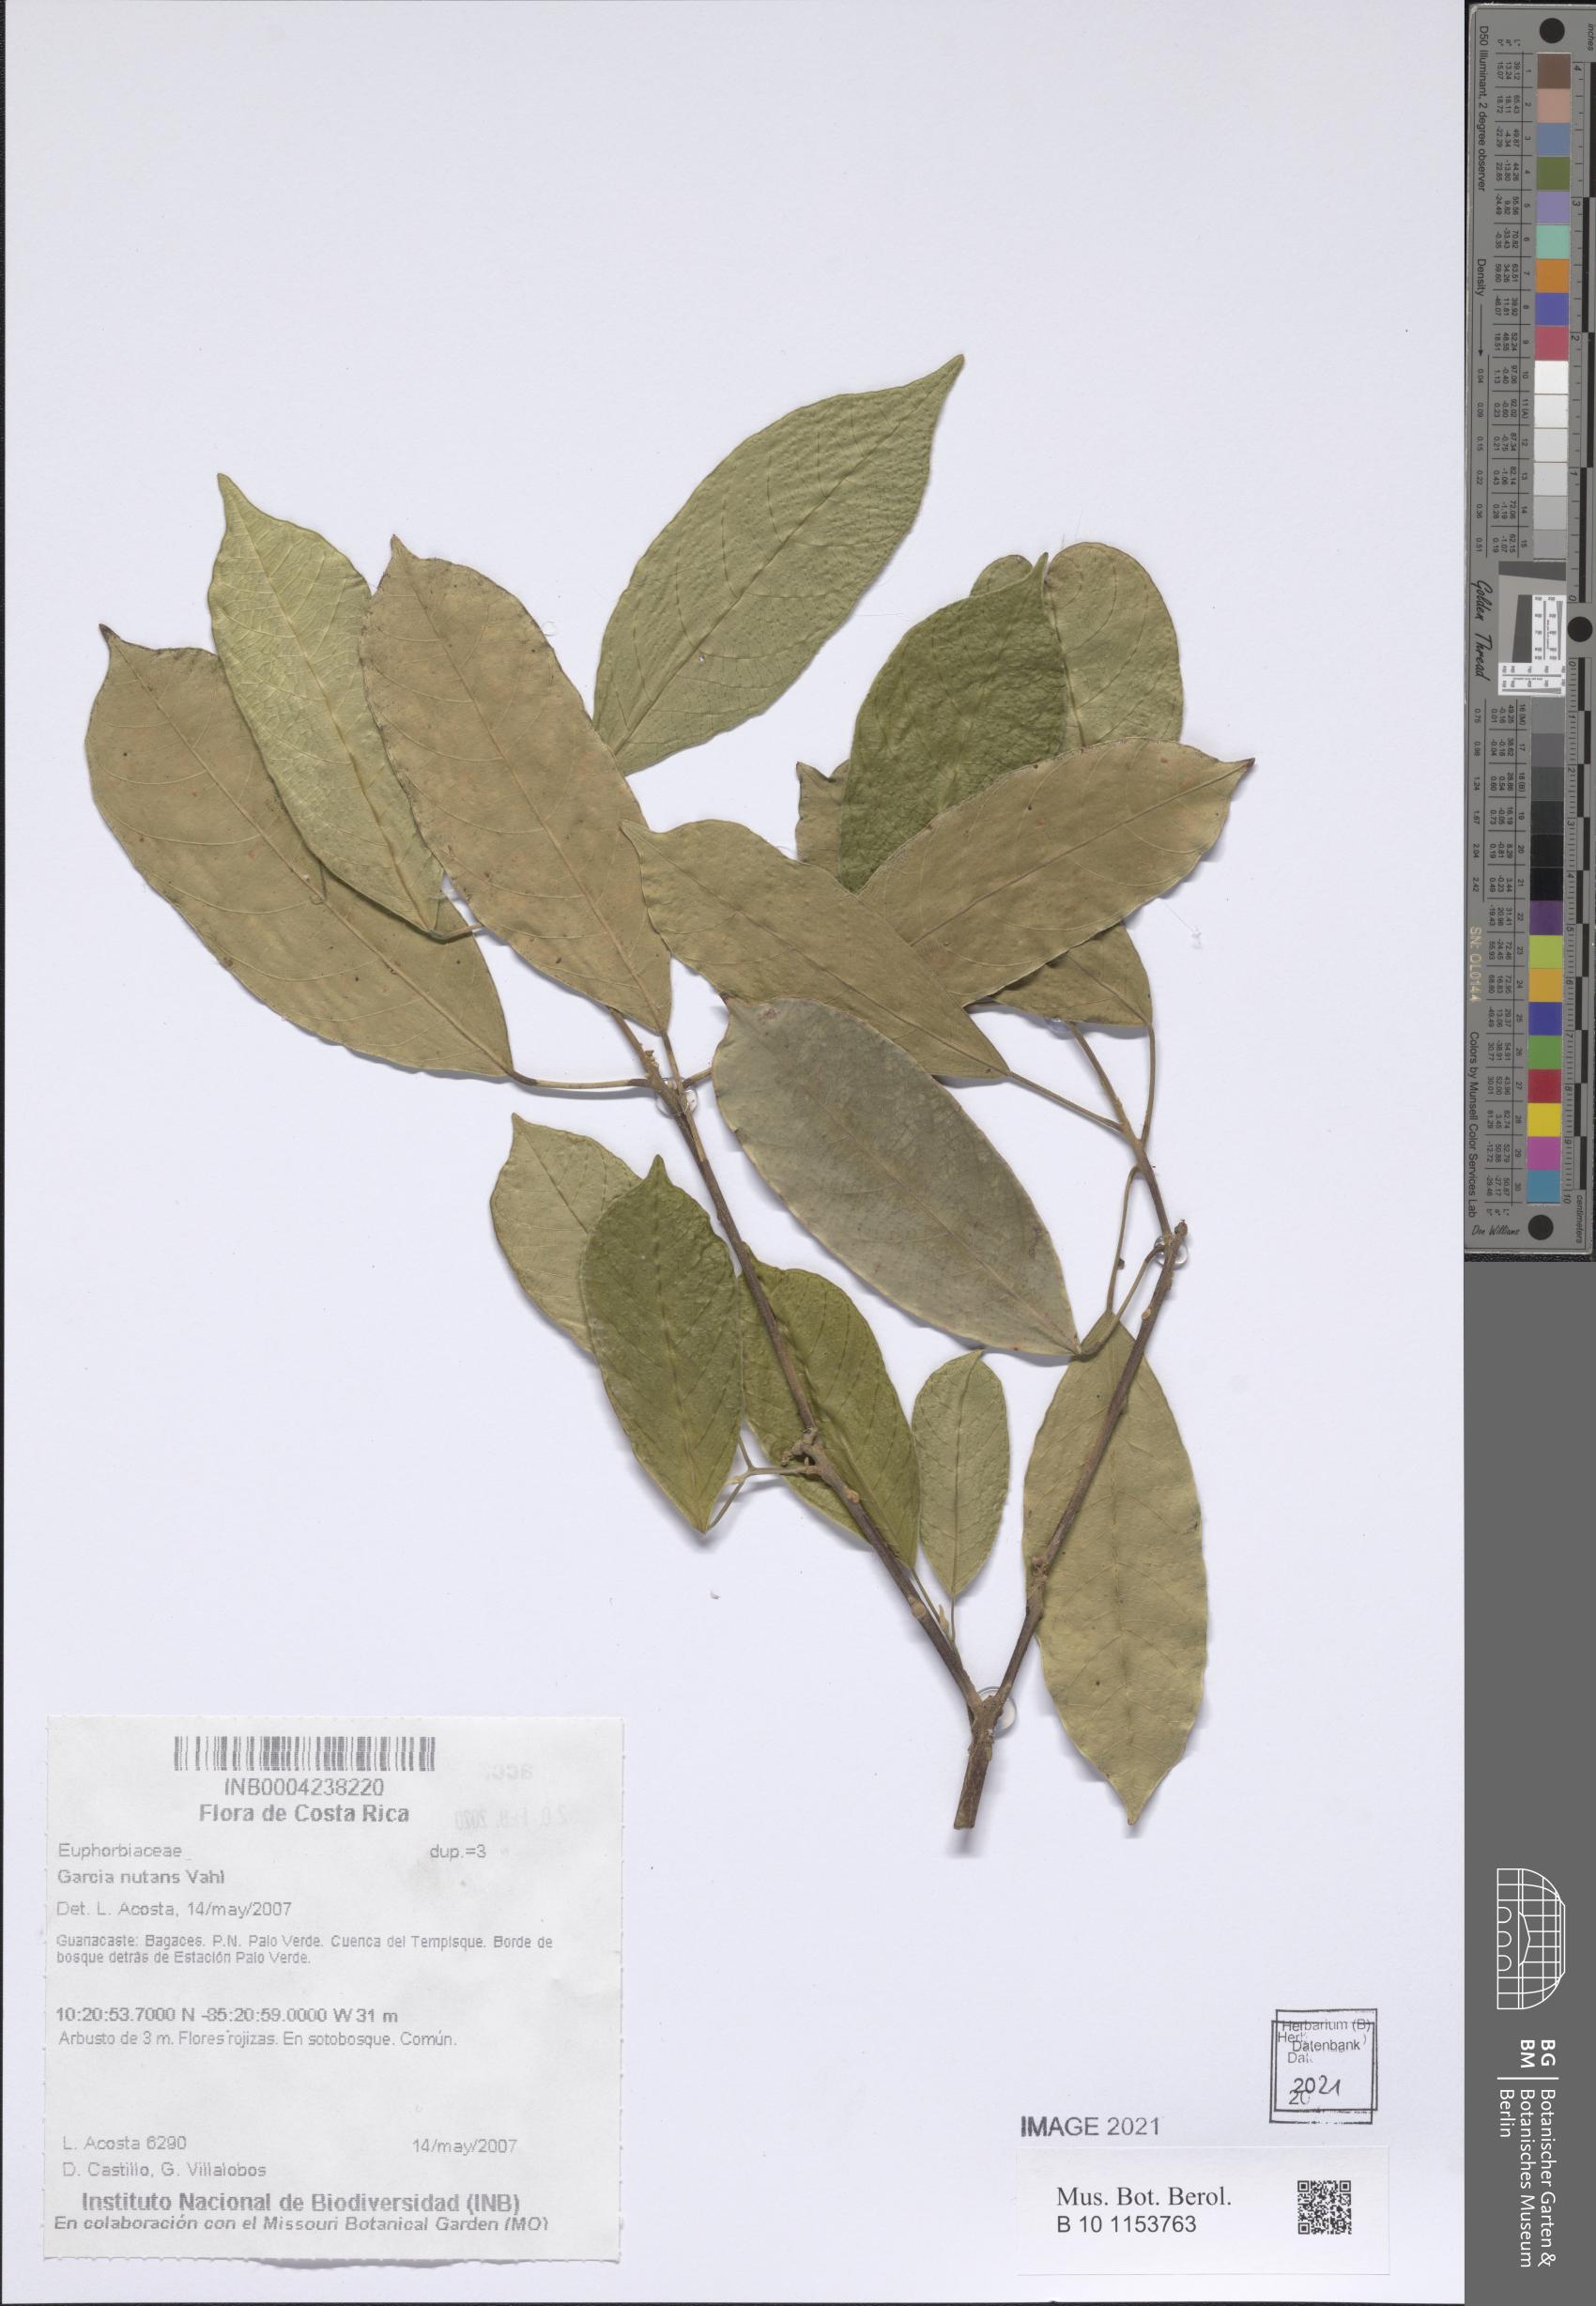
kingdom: Plantae
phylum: Tracheophyta
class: Magnoliopsida
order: Malpighiales
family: Euphorbiaceae
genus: Garcia
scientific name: Garcia nutans
